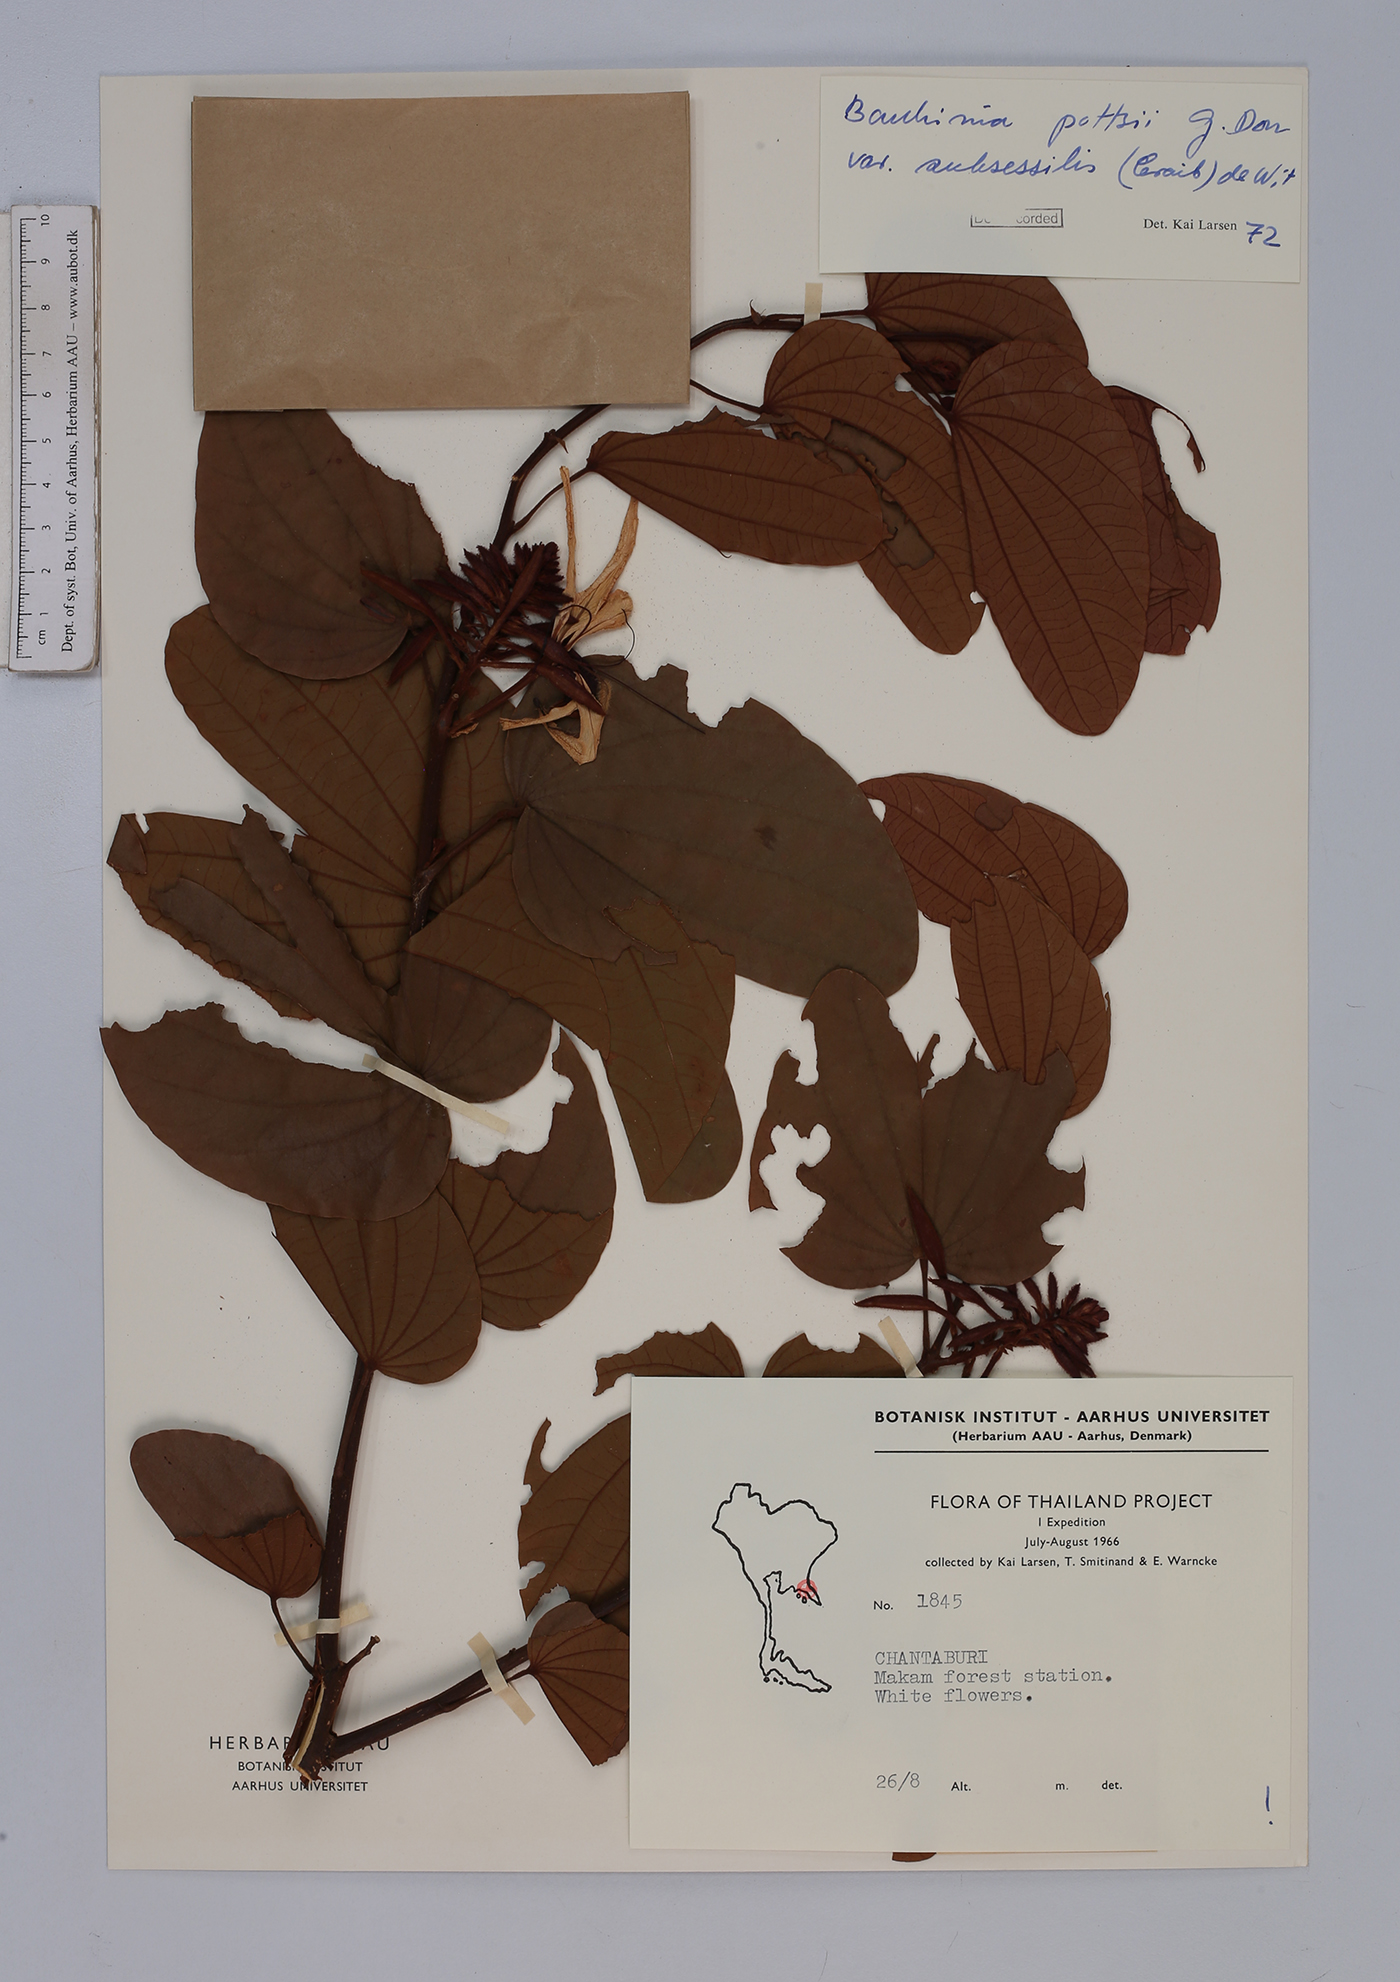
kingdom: Plantae
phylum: Tracheophyta
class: Magnoliopsida
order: Fabales
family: Fabaceae
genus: Bauhinia
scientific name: Bauhinia pottsii
